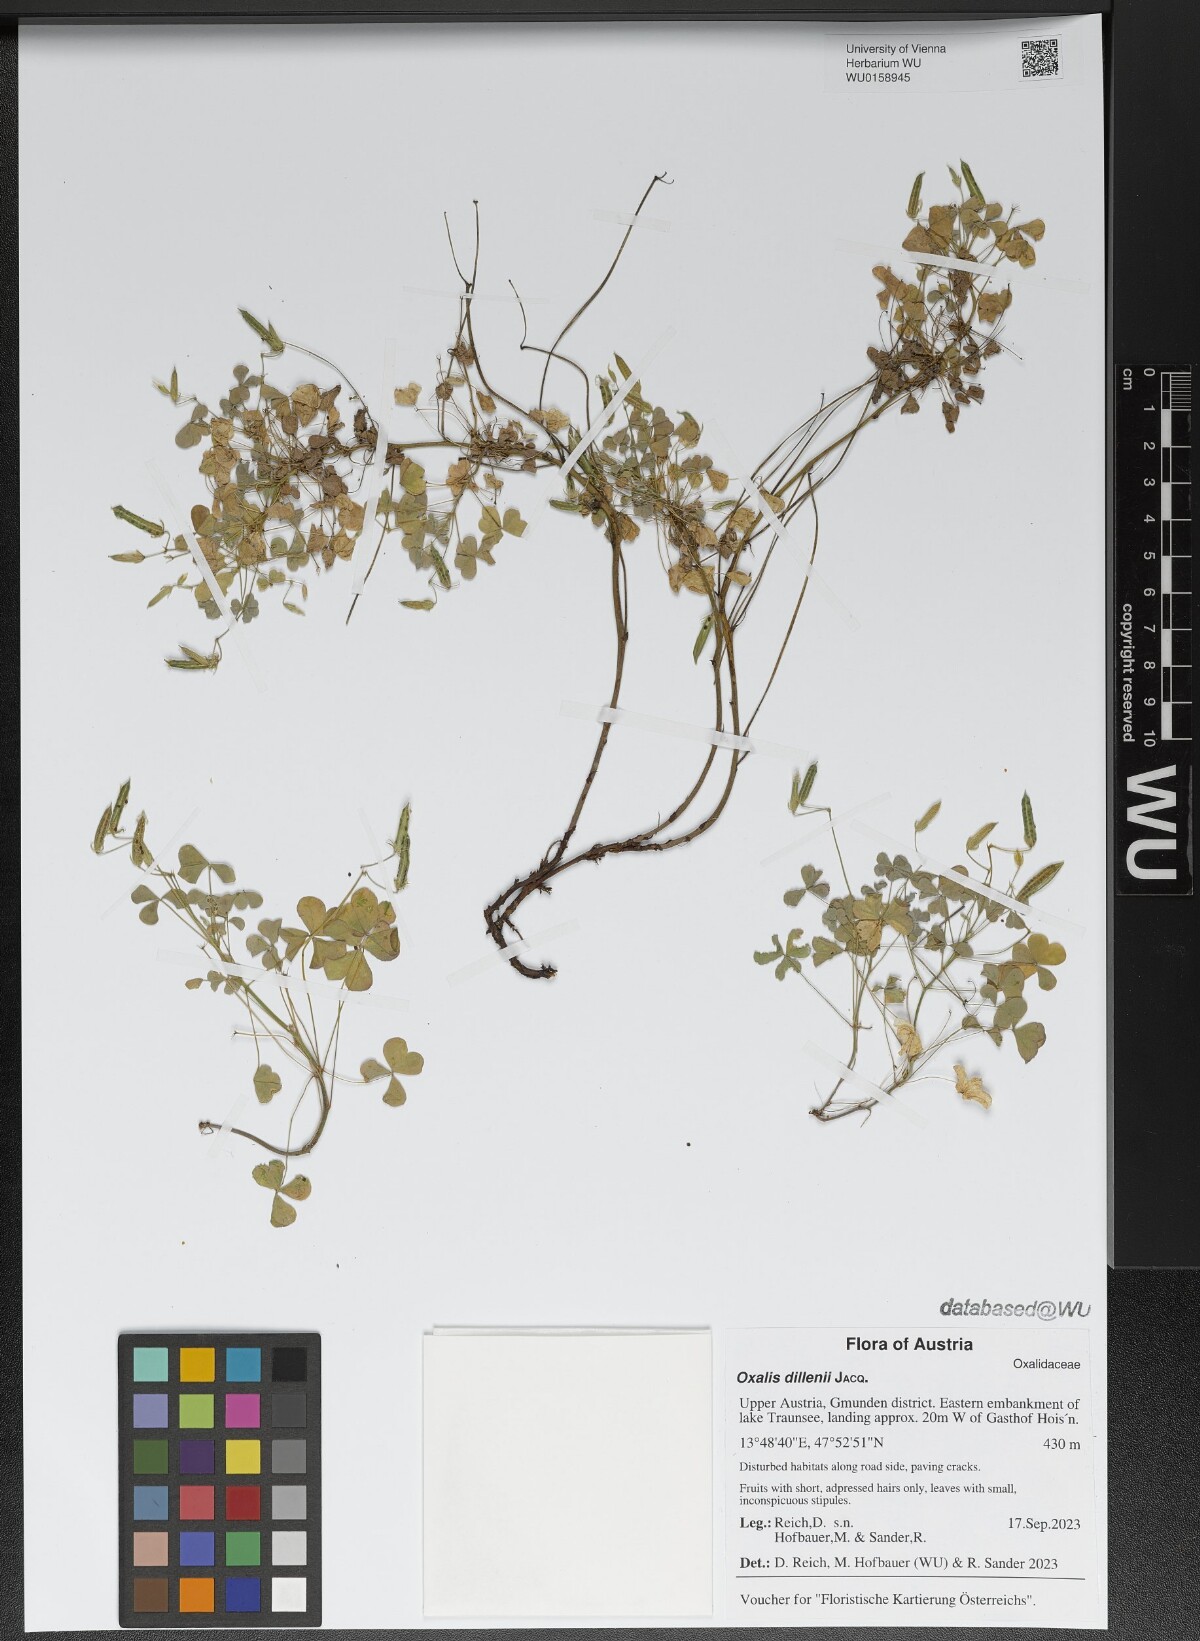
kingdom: Plantae
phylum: Tracheophyta
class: Magnoliopsida
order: Oxalidales
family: Oxalidaceae
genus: Oxalis
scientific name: Oxalis dillenii
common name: Sussex yellow-sorrel
